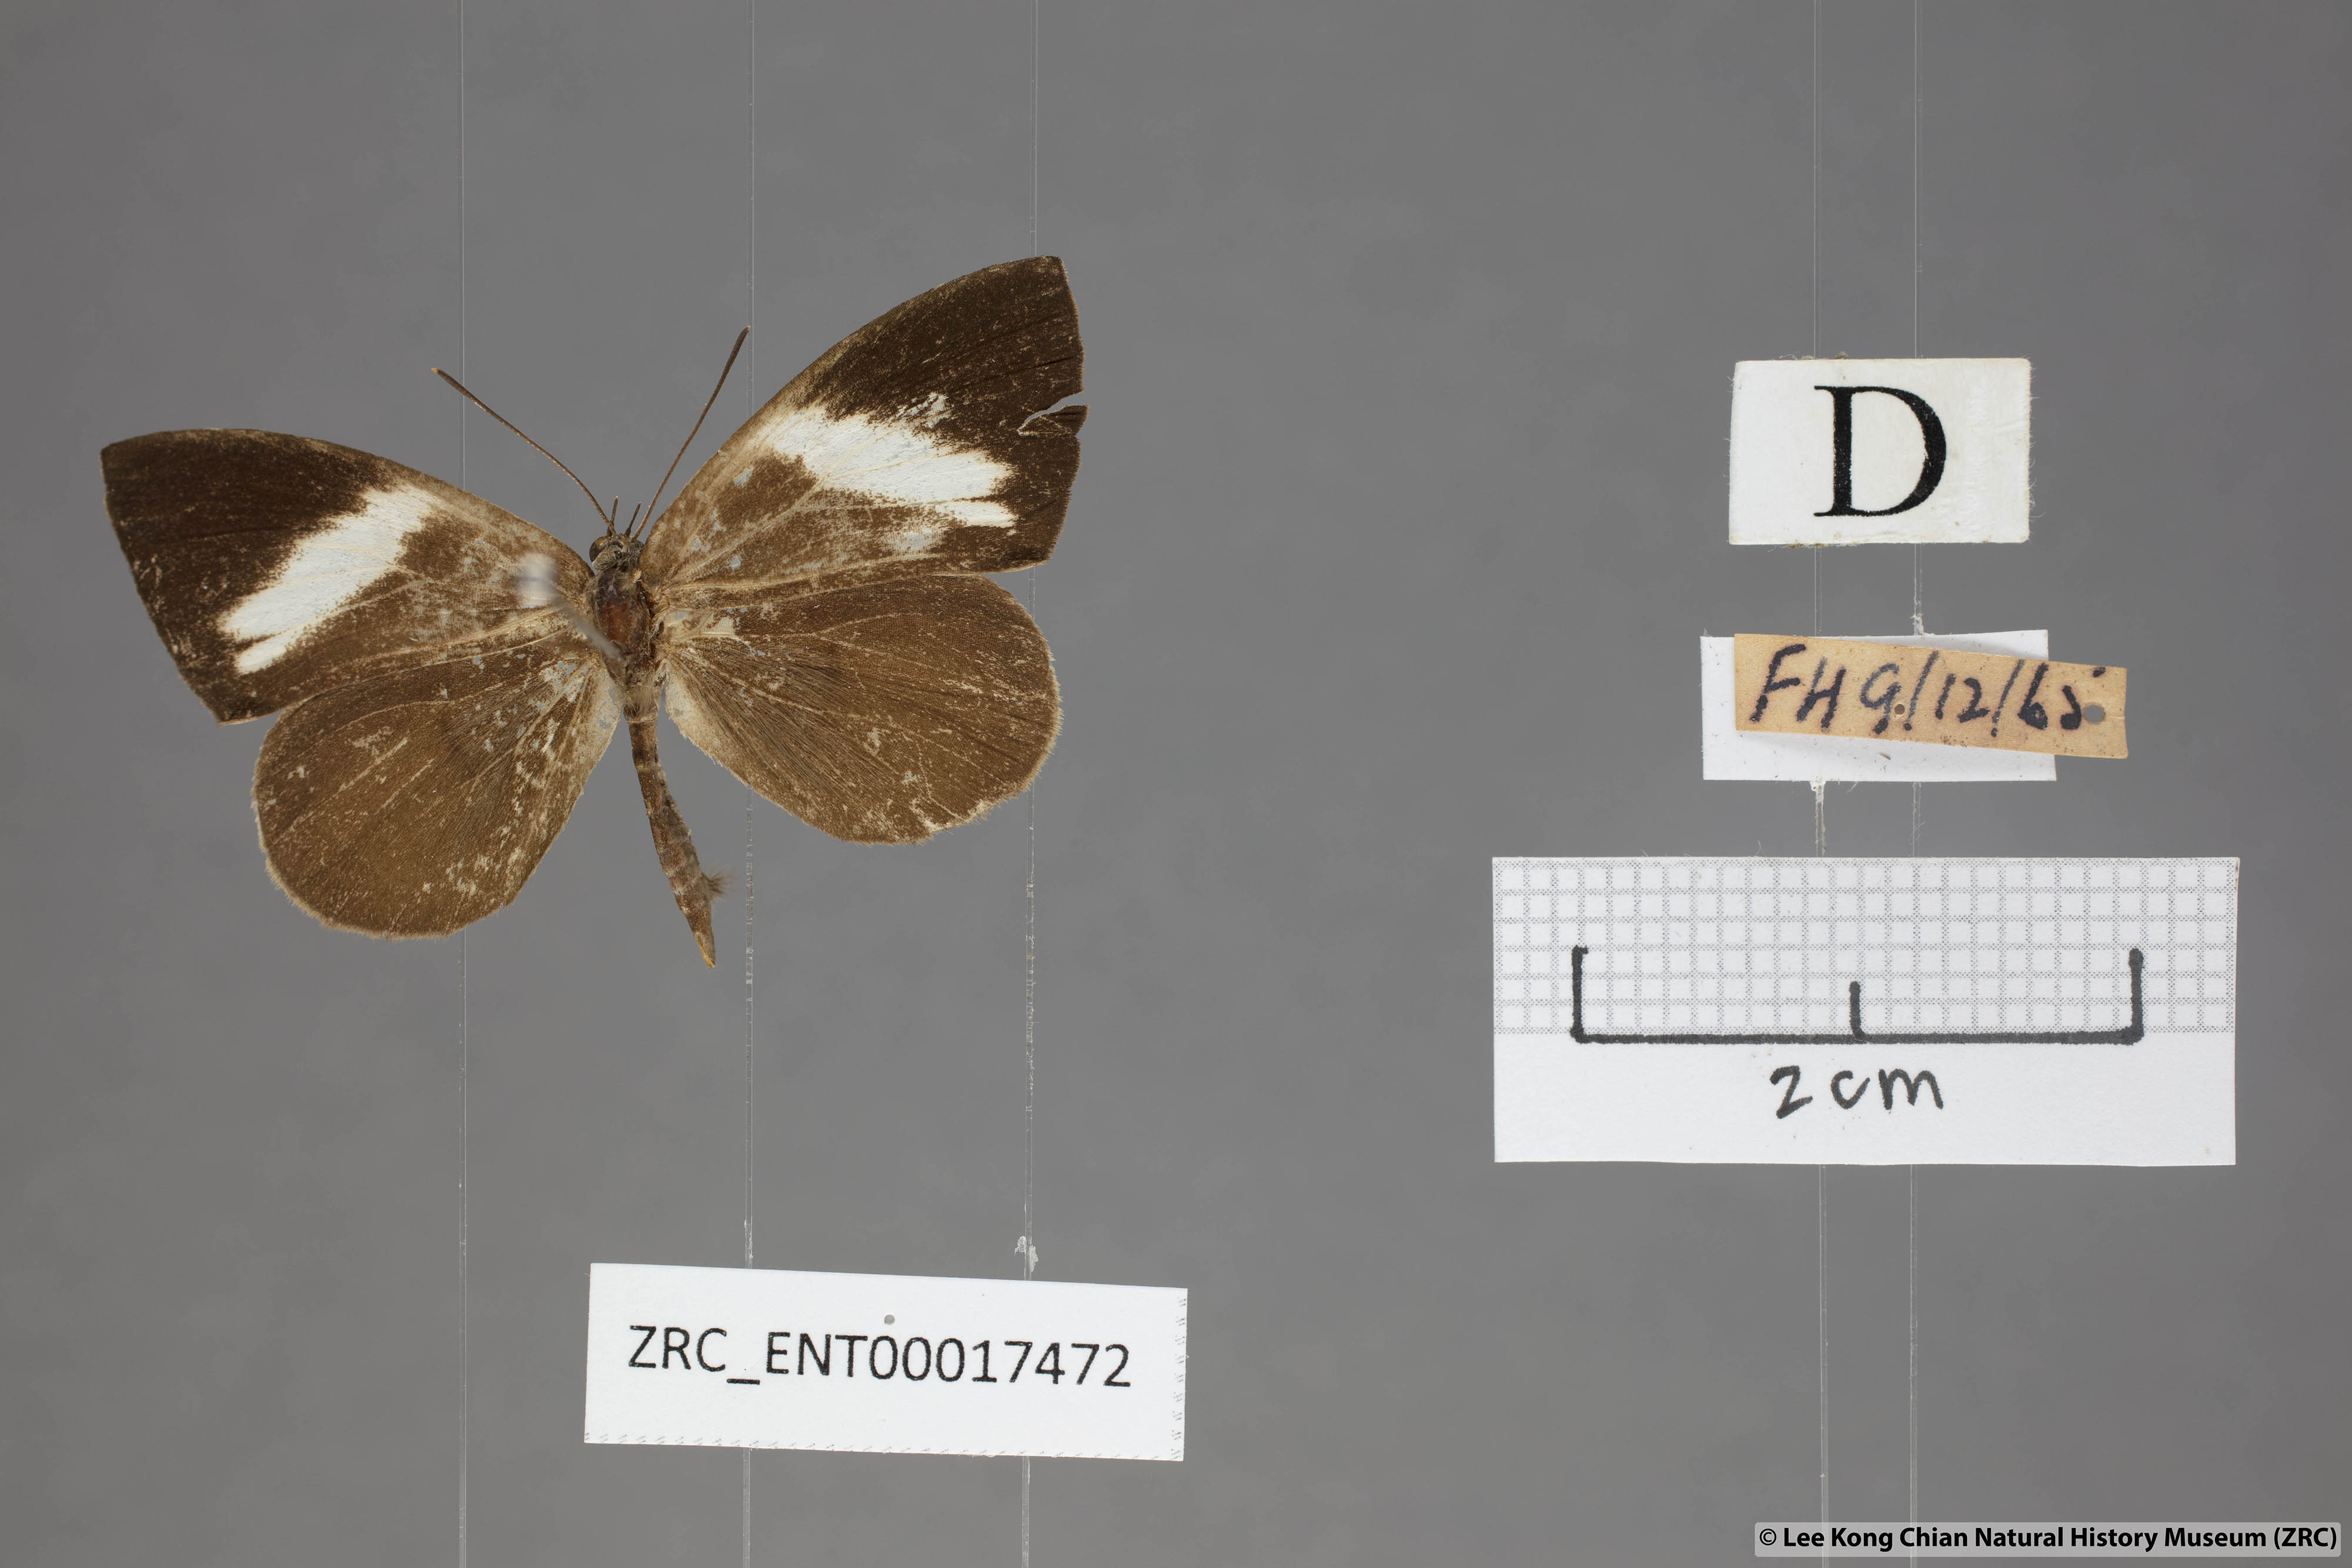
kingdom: Animalia
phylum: Arthropoda
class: Insecta
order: Lepidoptera
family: Lycaenidae
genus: Miletus
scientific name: Miletus nymphis
